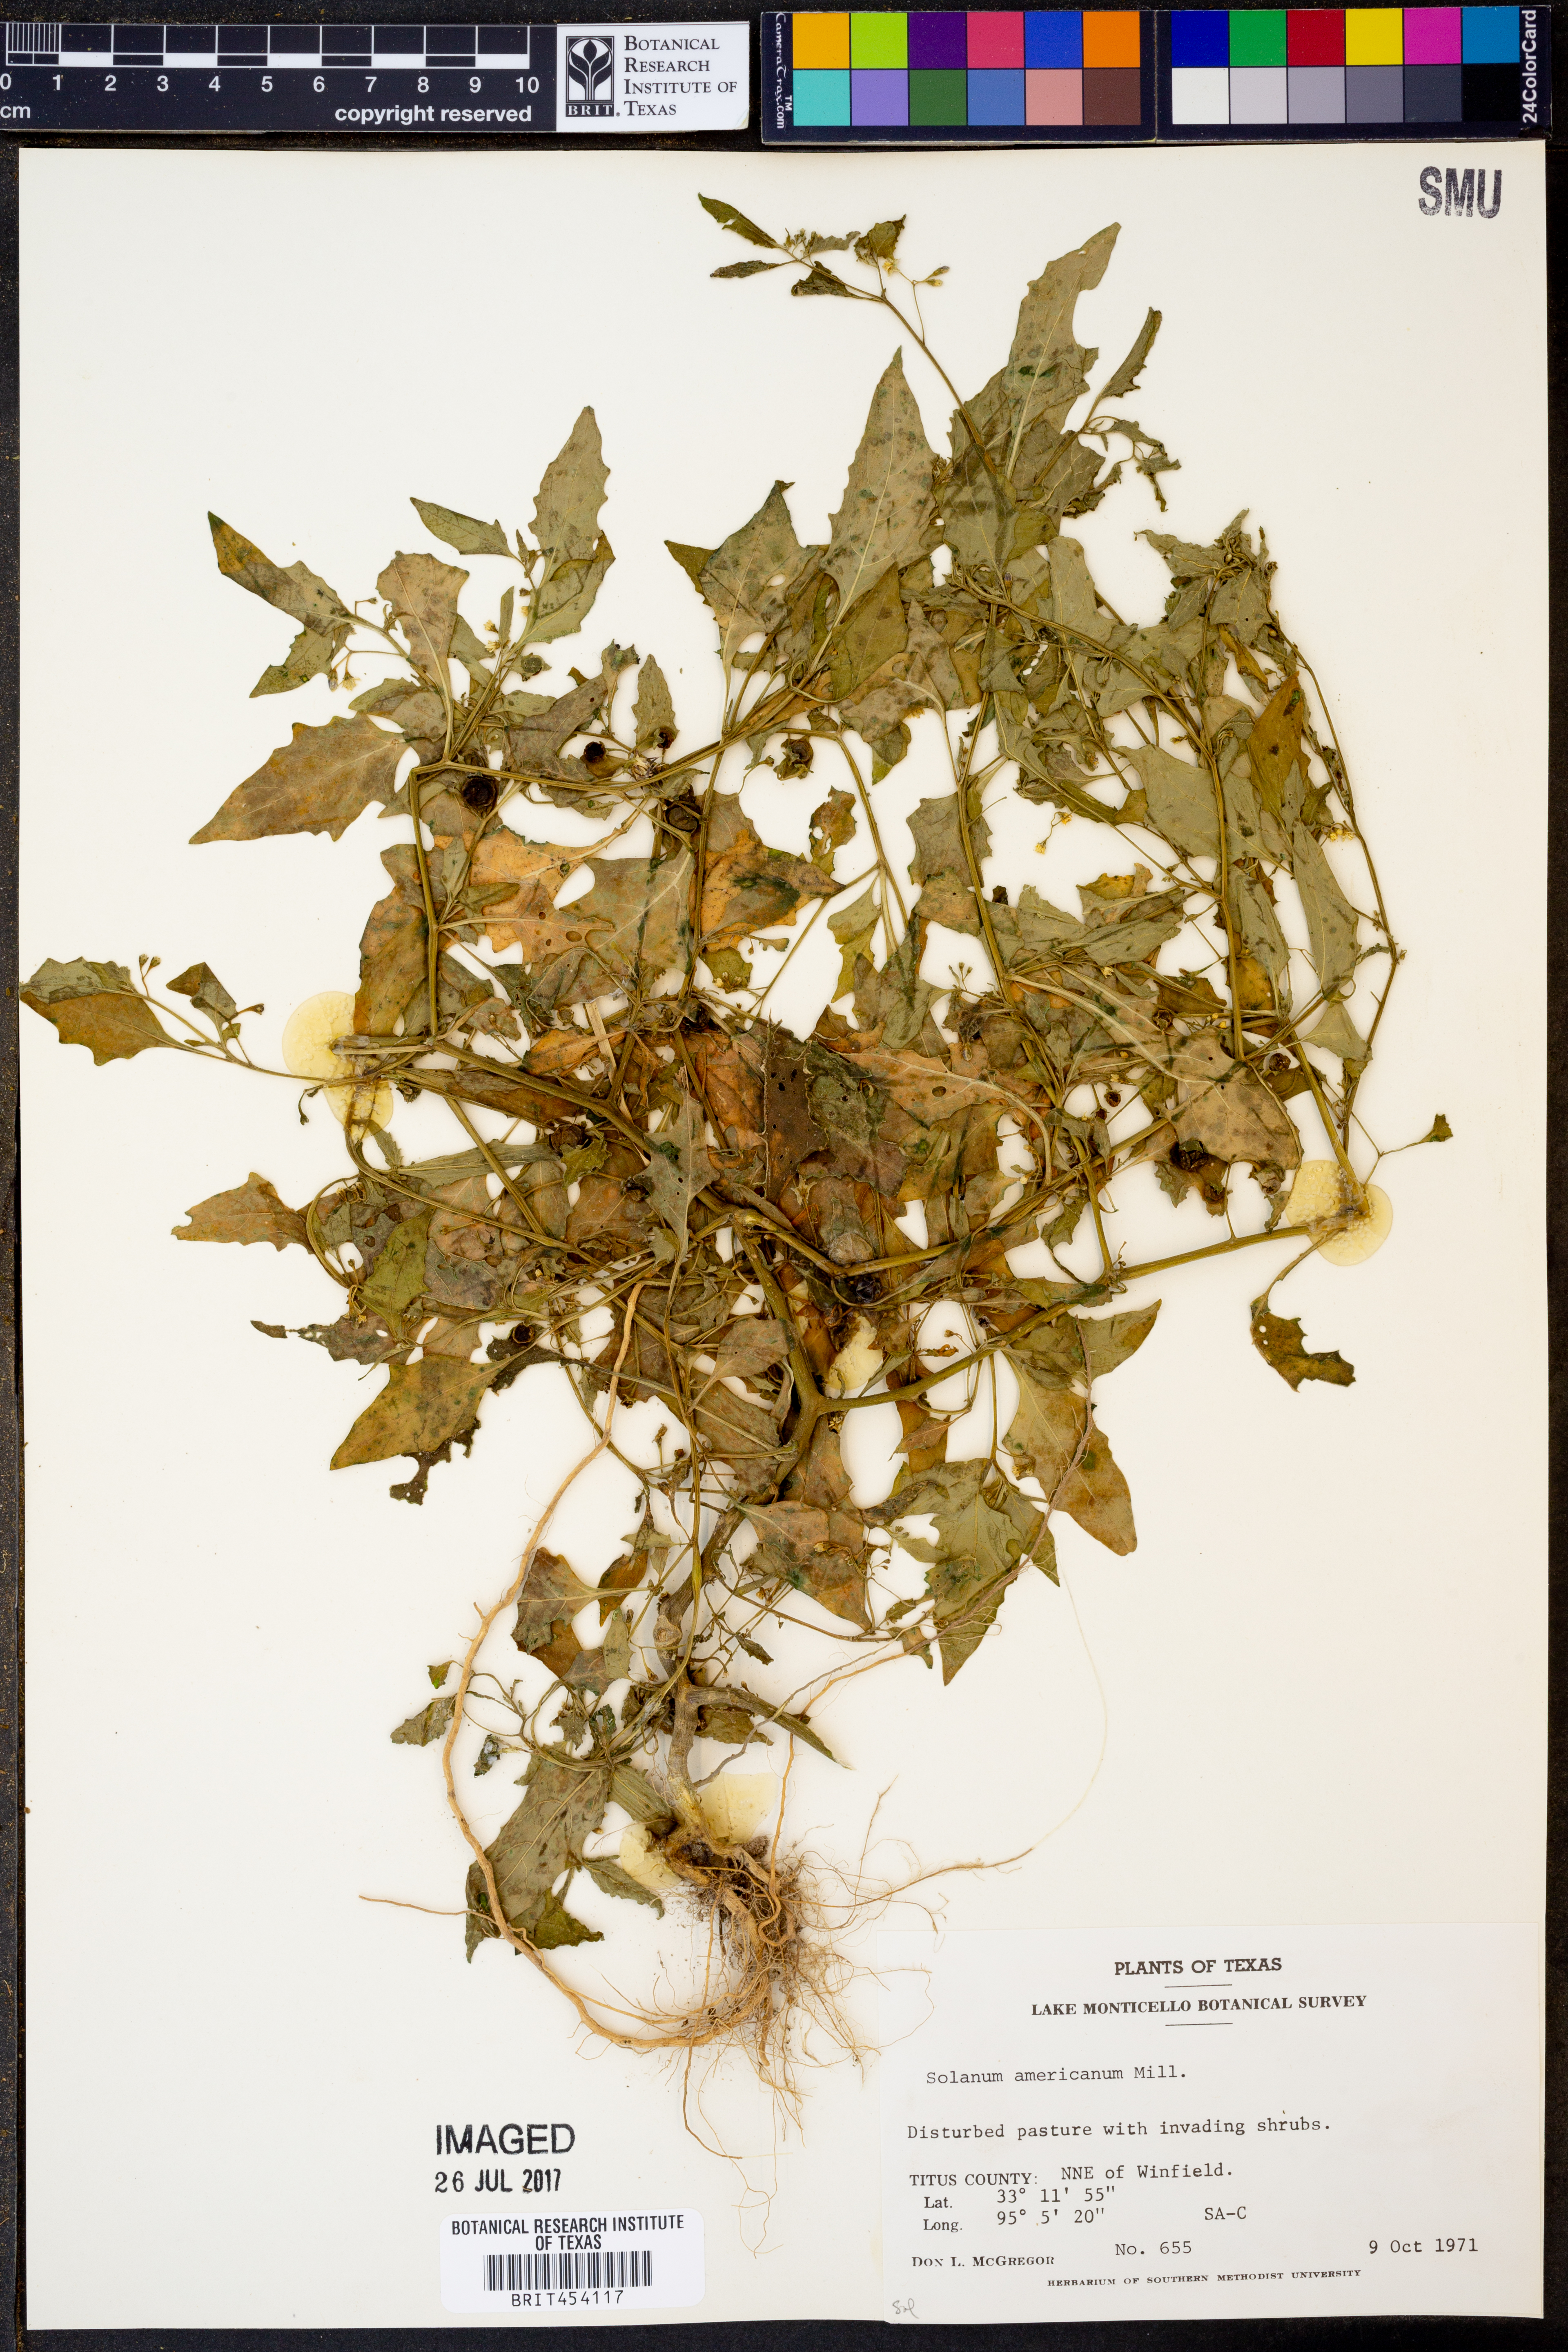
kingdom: Plantae
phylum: Tracheophyta
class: Magnoliopsida
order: Solanales
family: Solanaceae
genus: Solanum
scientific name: Solanum americanum
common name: American black nightshade
